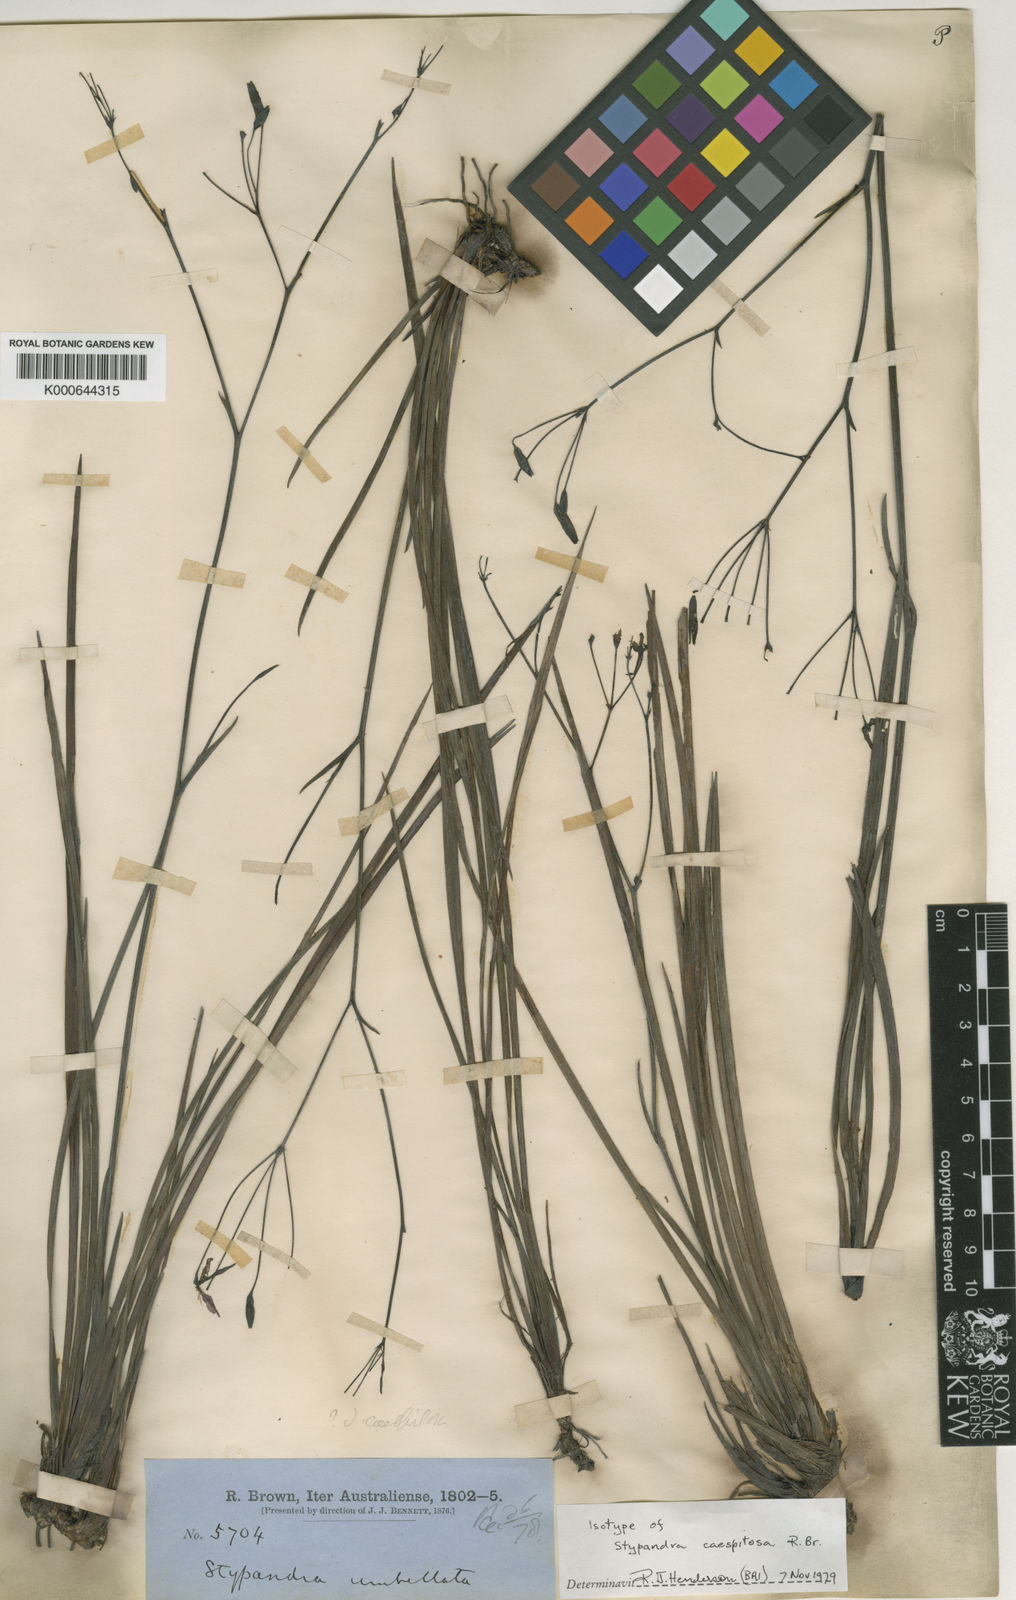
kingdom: Plantae
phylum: Tracheophyta
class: Liliopsida
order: Asparagales
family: Asphodelaceae
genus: Thelionema
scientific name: Thelionema caespitosum
